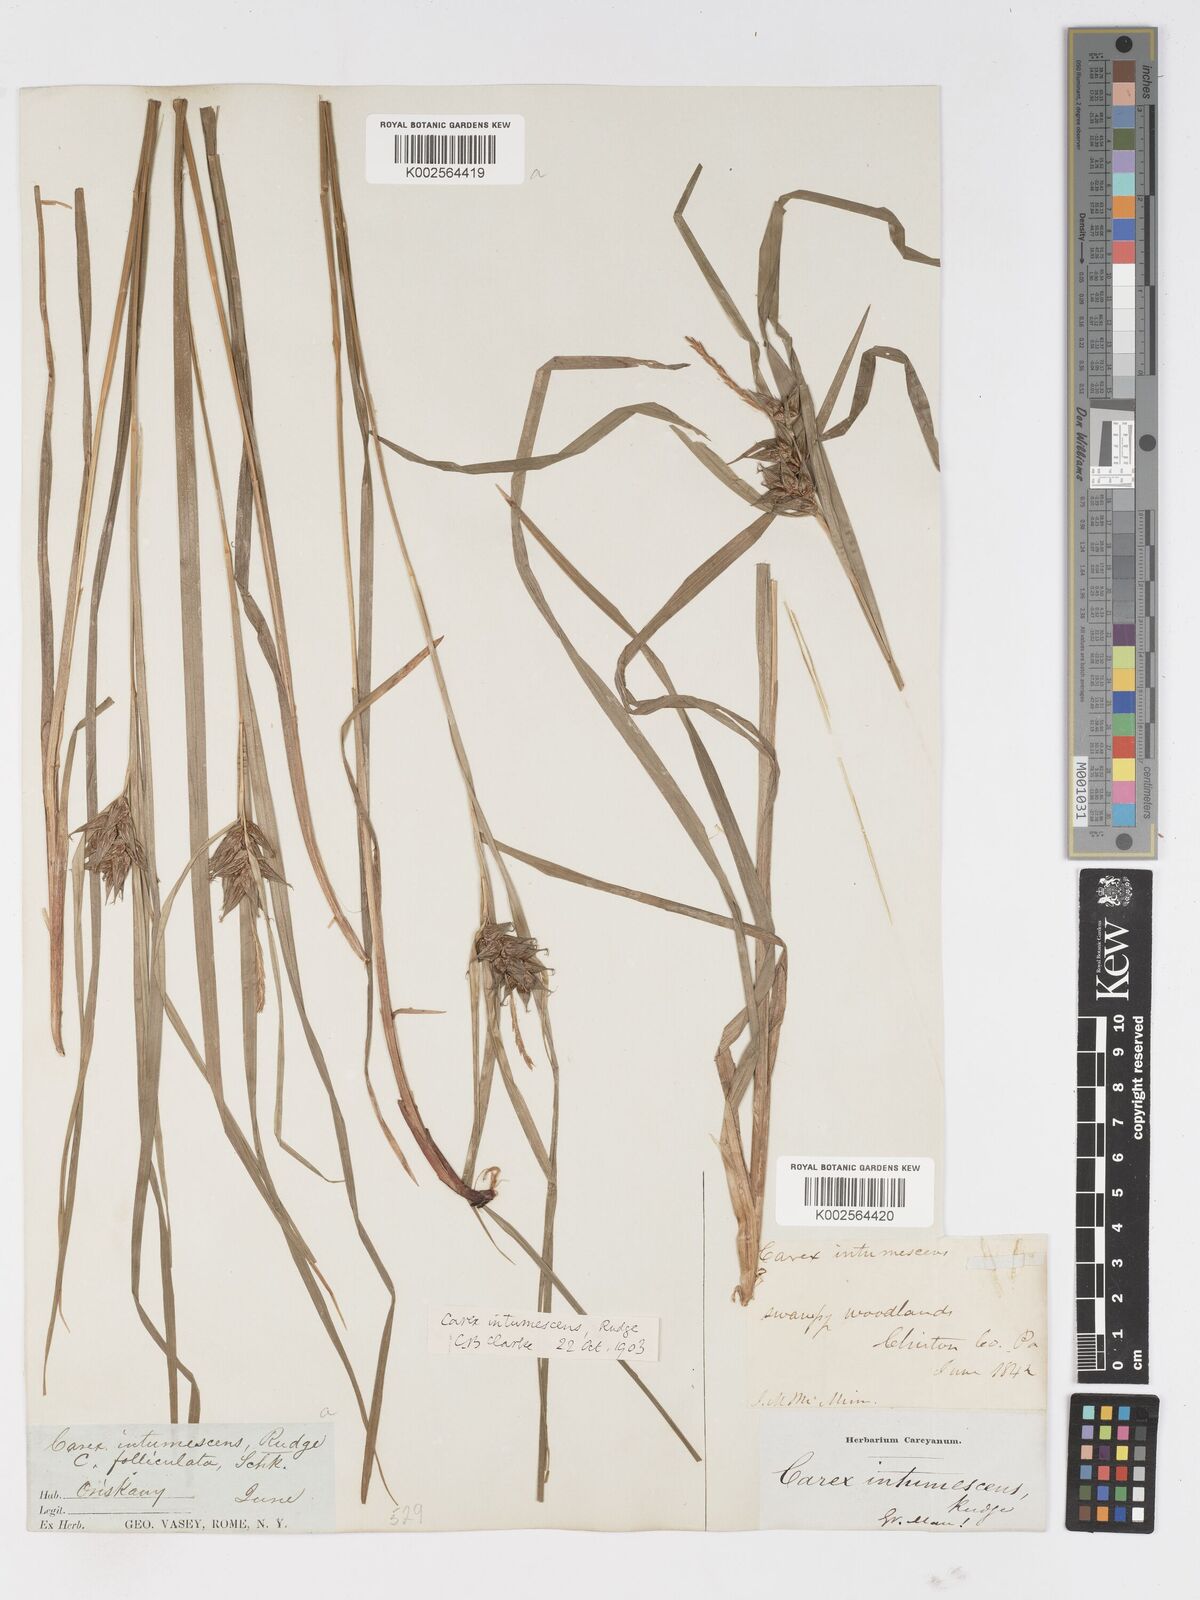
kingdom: Plantae
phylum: Tracheophyta
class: Liliopsida
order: Poales
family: Cyperaceae
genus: Carex
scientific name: Carex intumescens
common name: Greater bladder sedge
